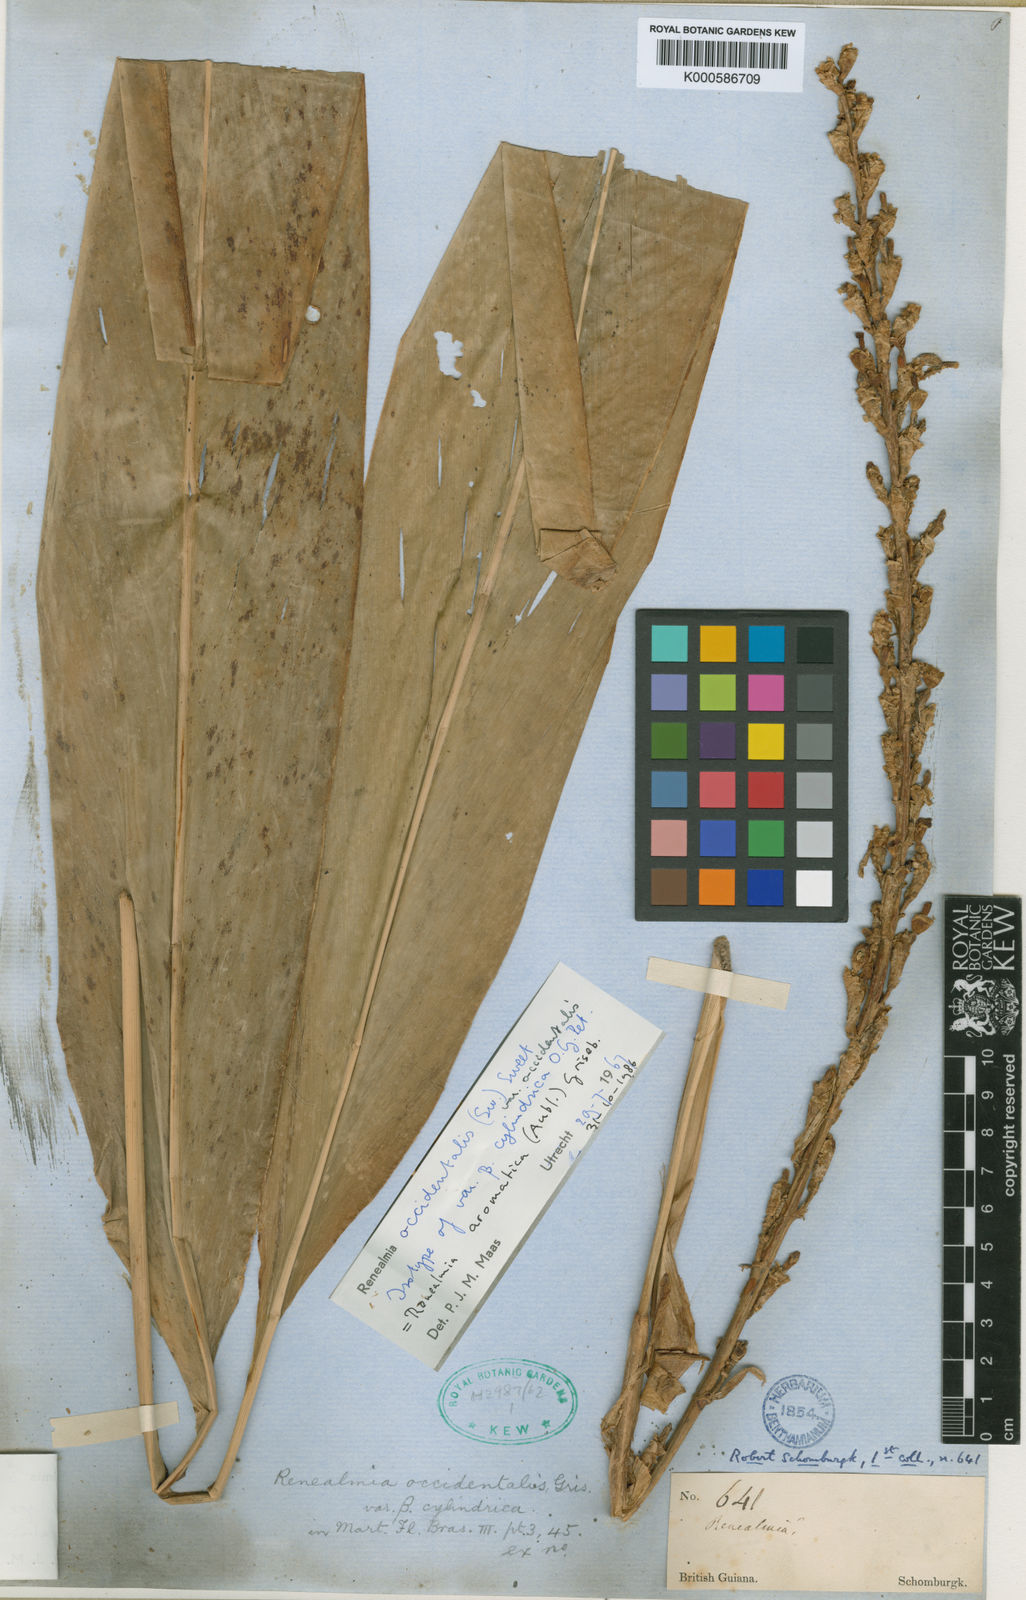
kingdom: Plantae
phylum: Tracheophyta
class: Liliopsida
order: Zingiberales
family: Zingiberaceae
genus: Renealmia
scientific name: Renealmia aromatica
